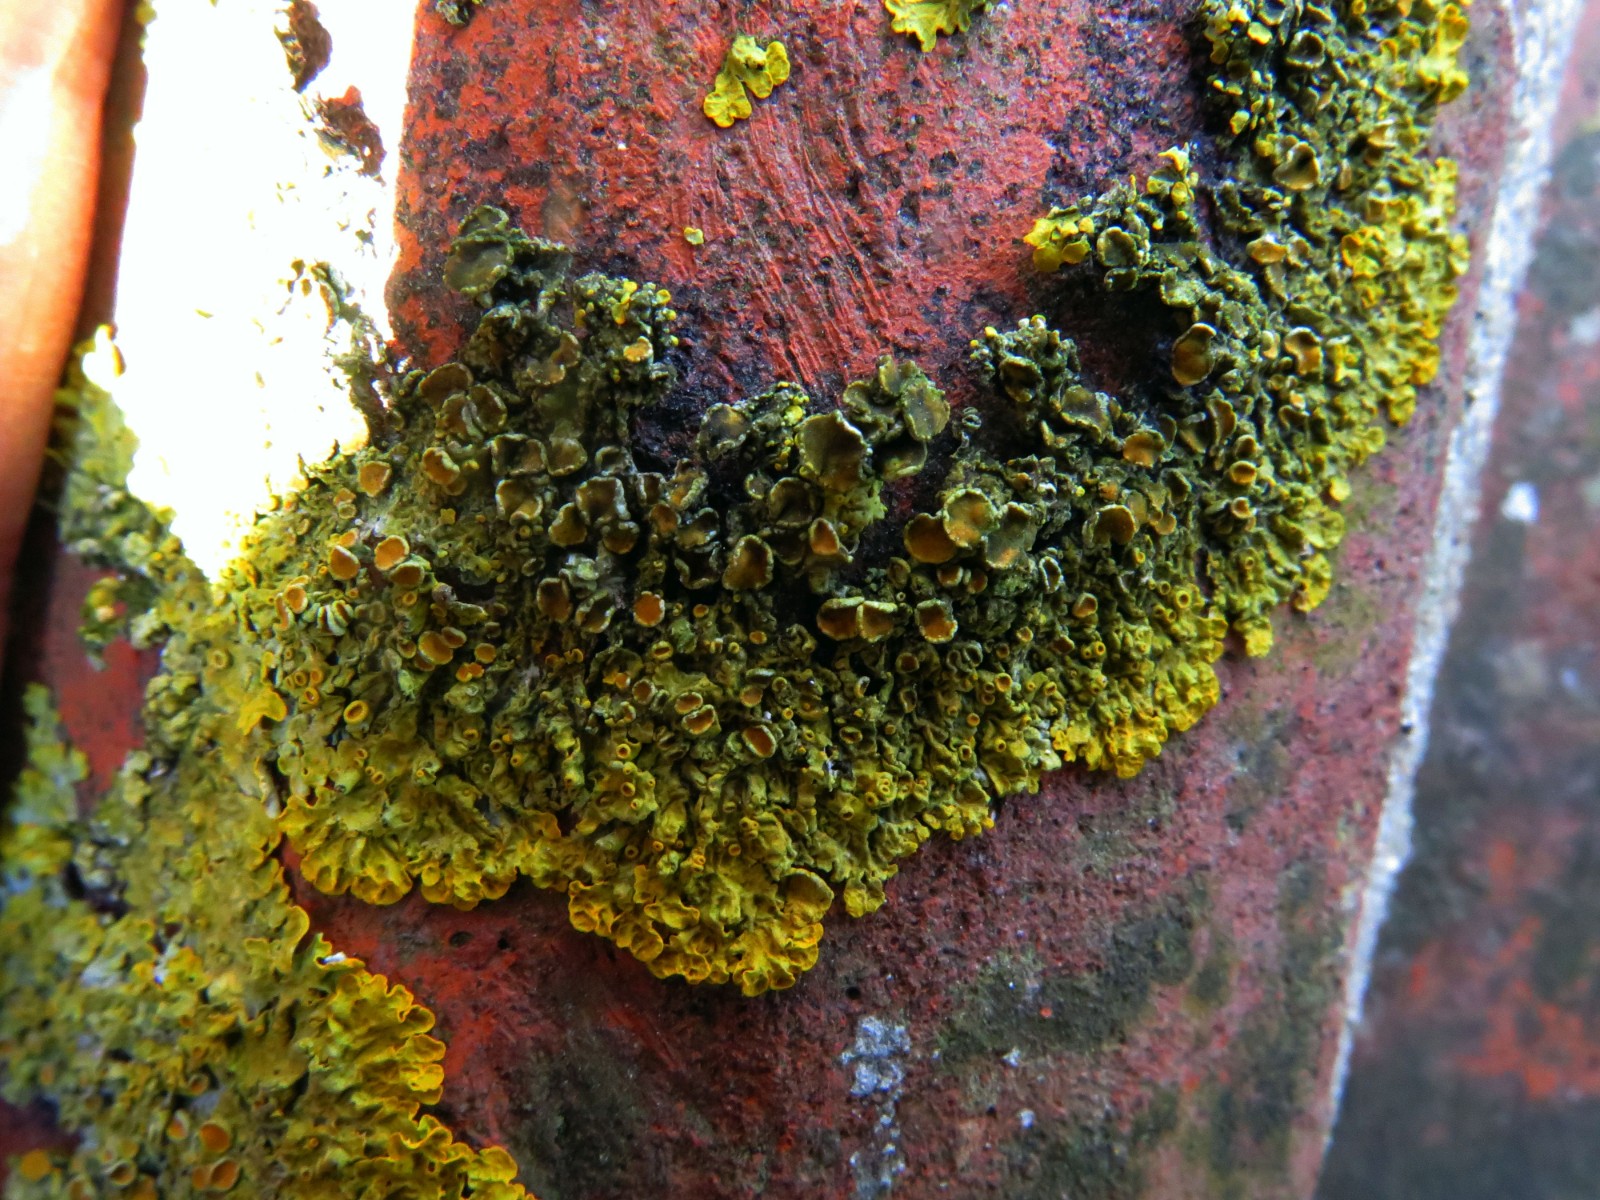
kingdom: Fungi
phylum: Ascomycota
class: Dothideomycetes
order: Mycosphaerellales
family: Teratosphaeriaceae
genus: Xanthoriicola
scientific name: Xanthoriicola physciae
